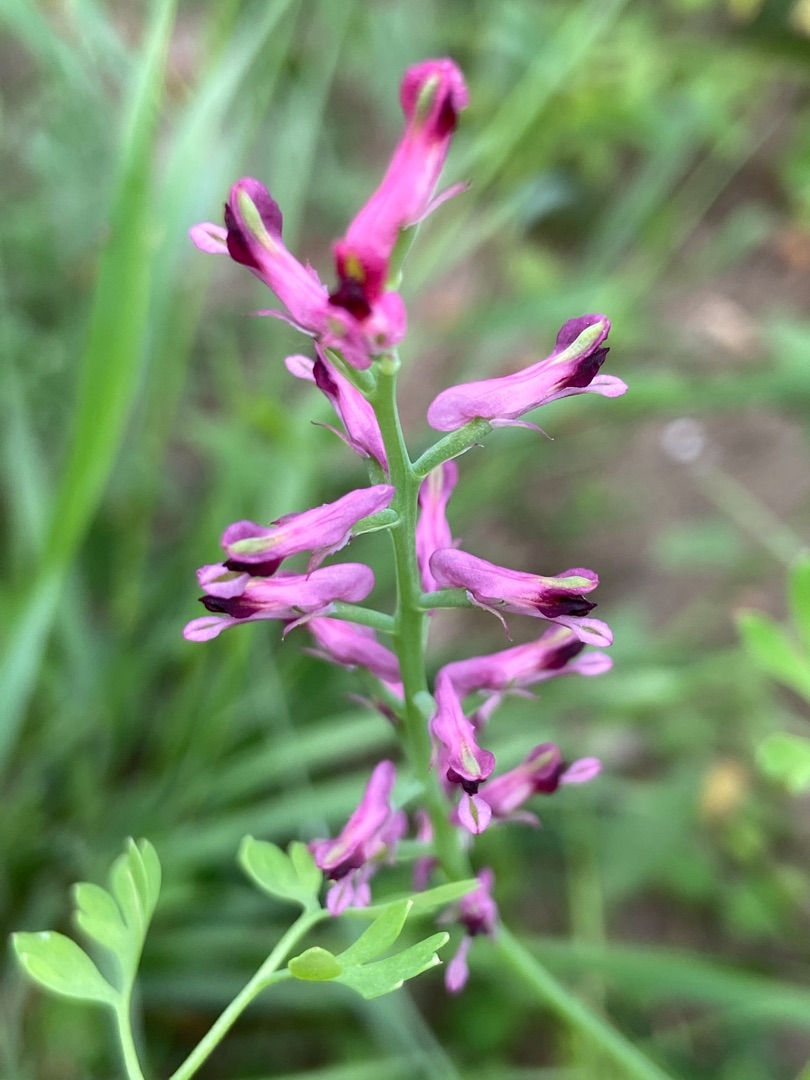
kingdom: Plantae
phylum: Tracheophyta
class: Magnoliopsida
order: Ranunculales
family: Papaveraceae
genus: Fumaria
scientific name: Fumaria officinalis
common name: Læge-jordrøg
